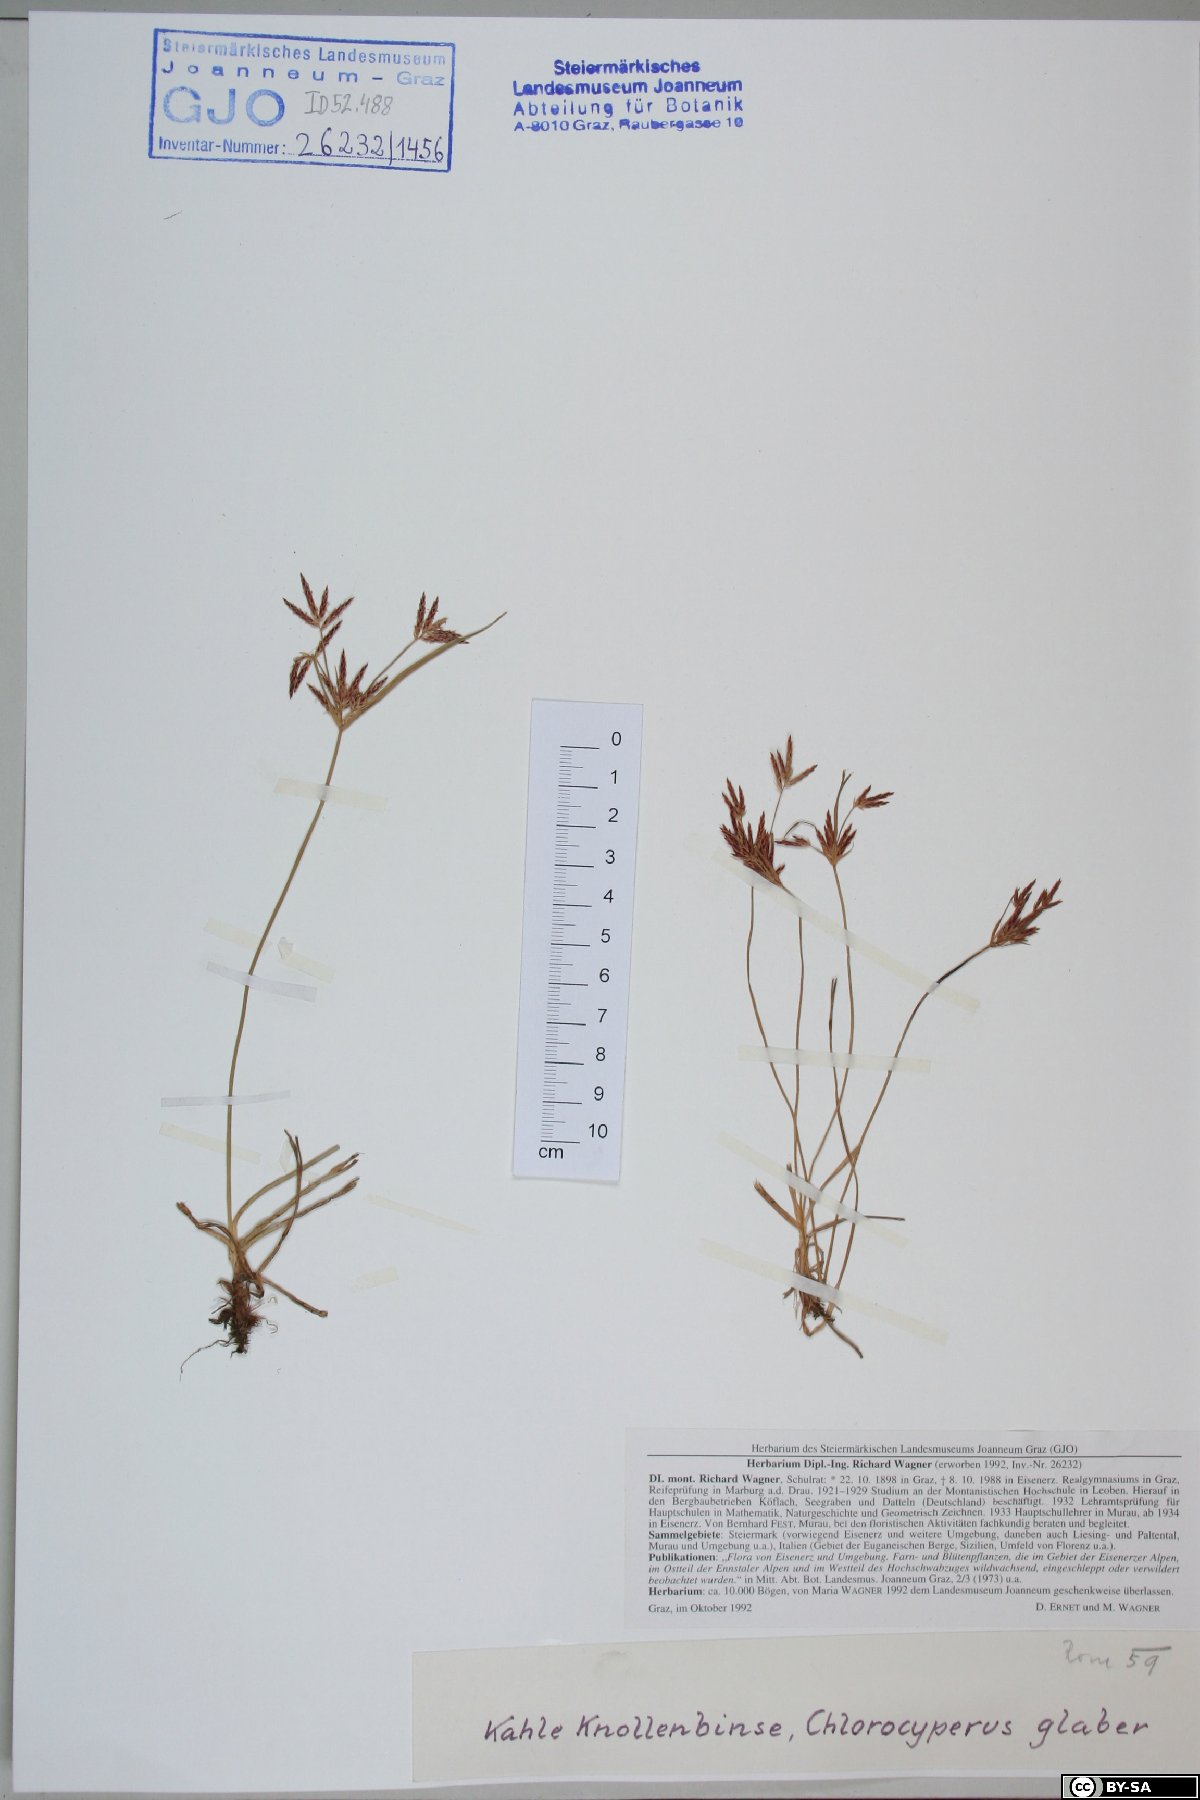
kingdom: Plantae
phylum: Tracheophyta
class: Liliopsida
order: Poales
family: Cyperaceae
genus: Cyperus
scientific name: Cyperus glaber
